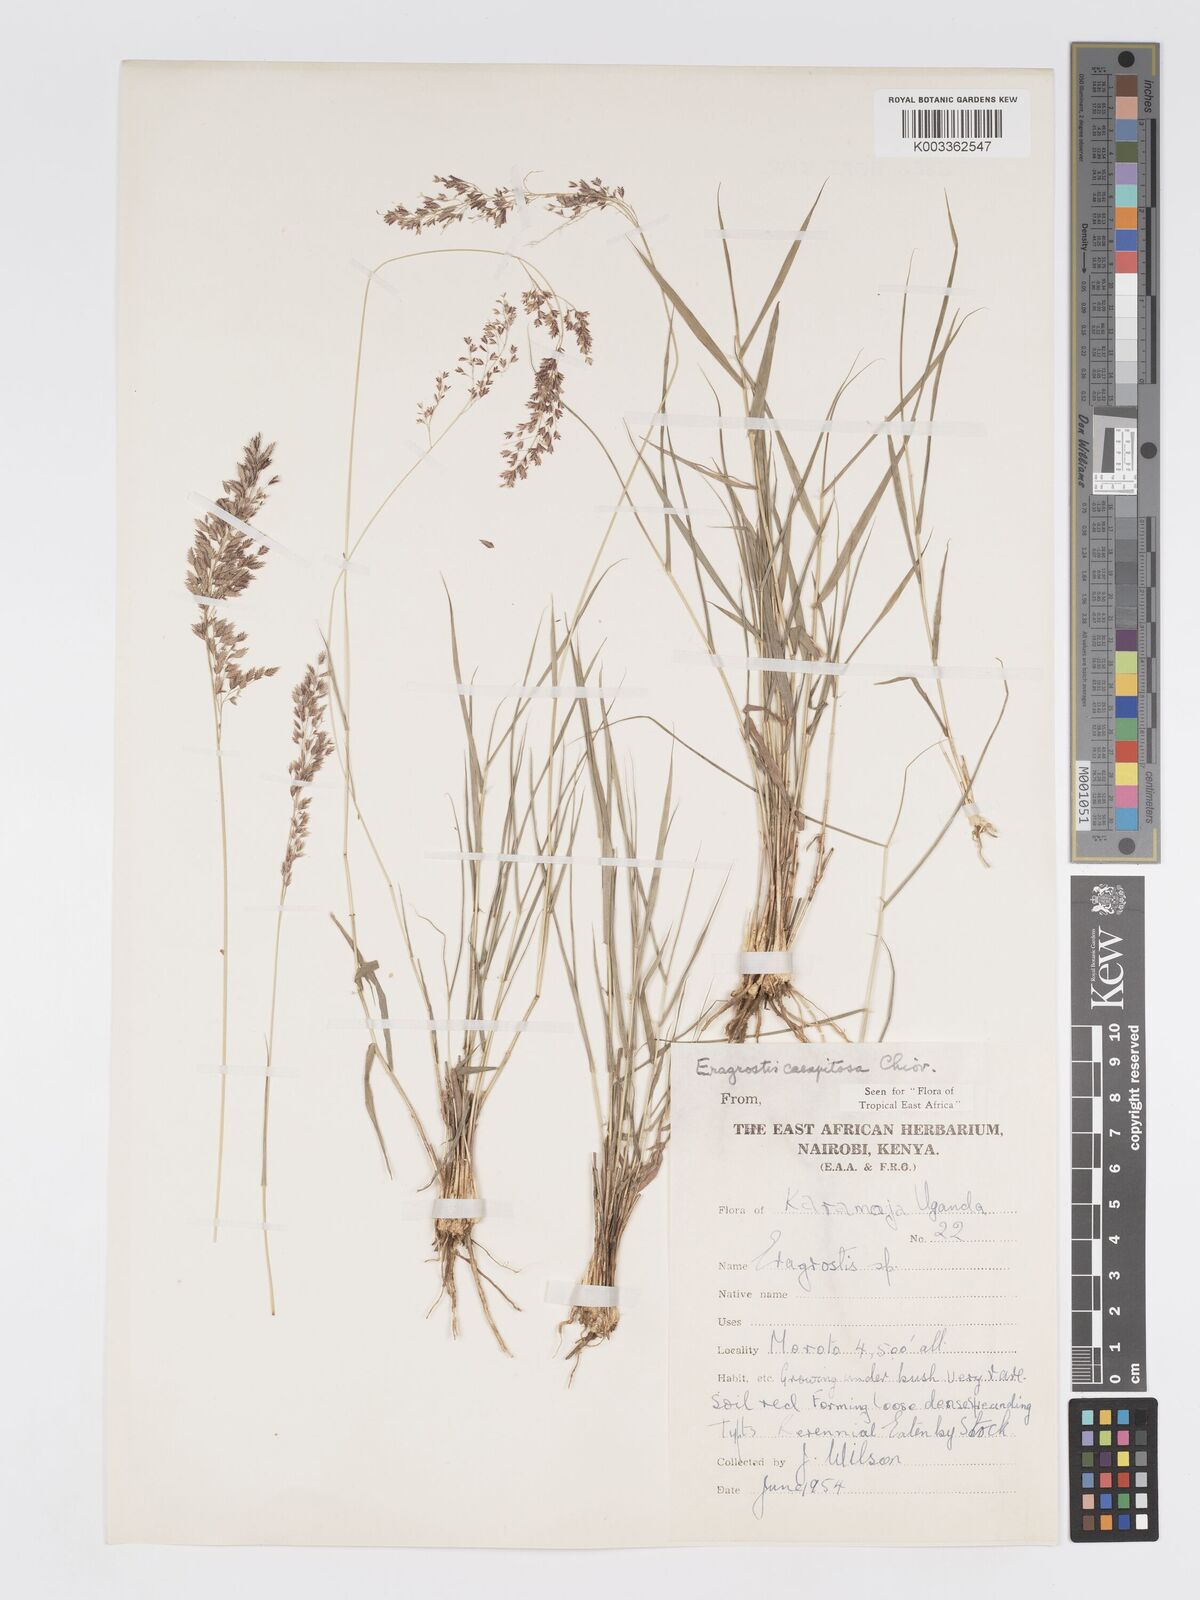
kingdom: Plantae
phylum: Tracheophyta
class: Liliopsida
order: Poales
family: Poaceae
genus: Eragrostis
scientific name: Eragrostis caespitosa
